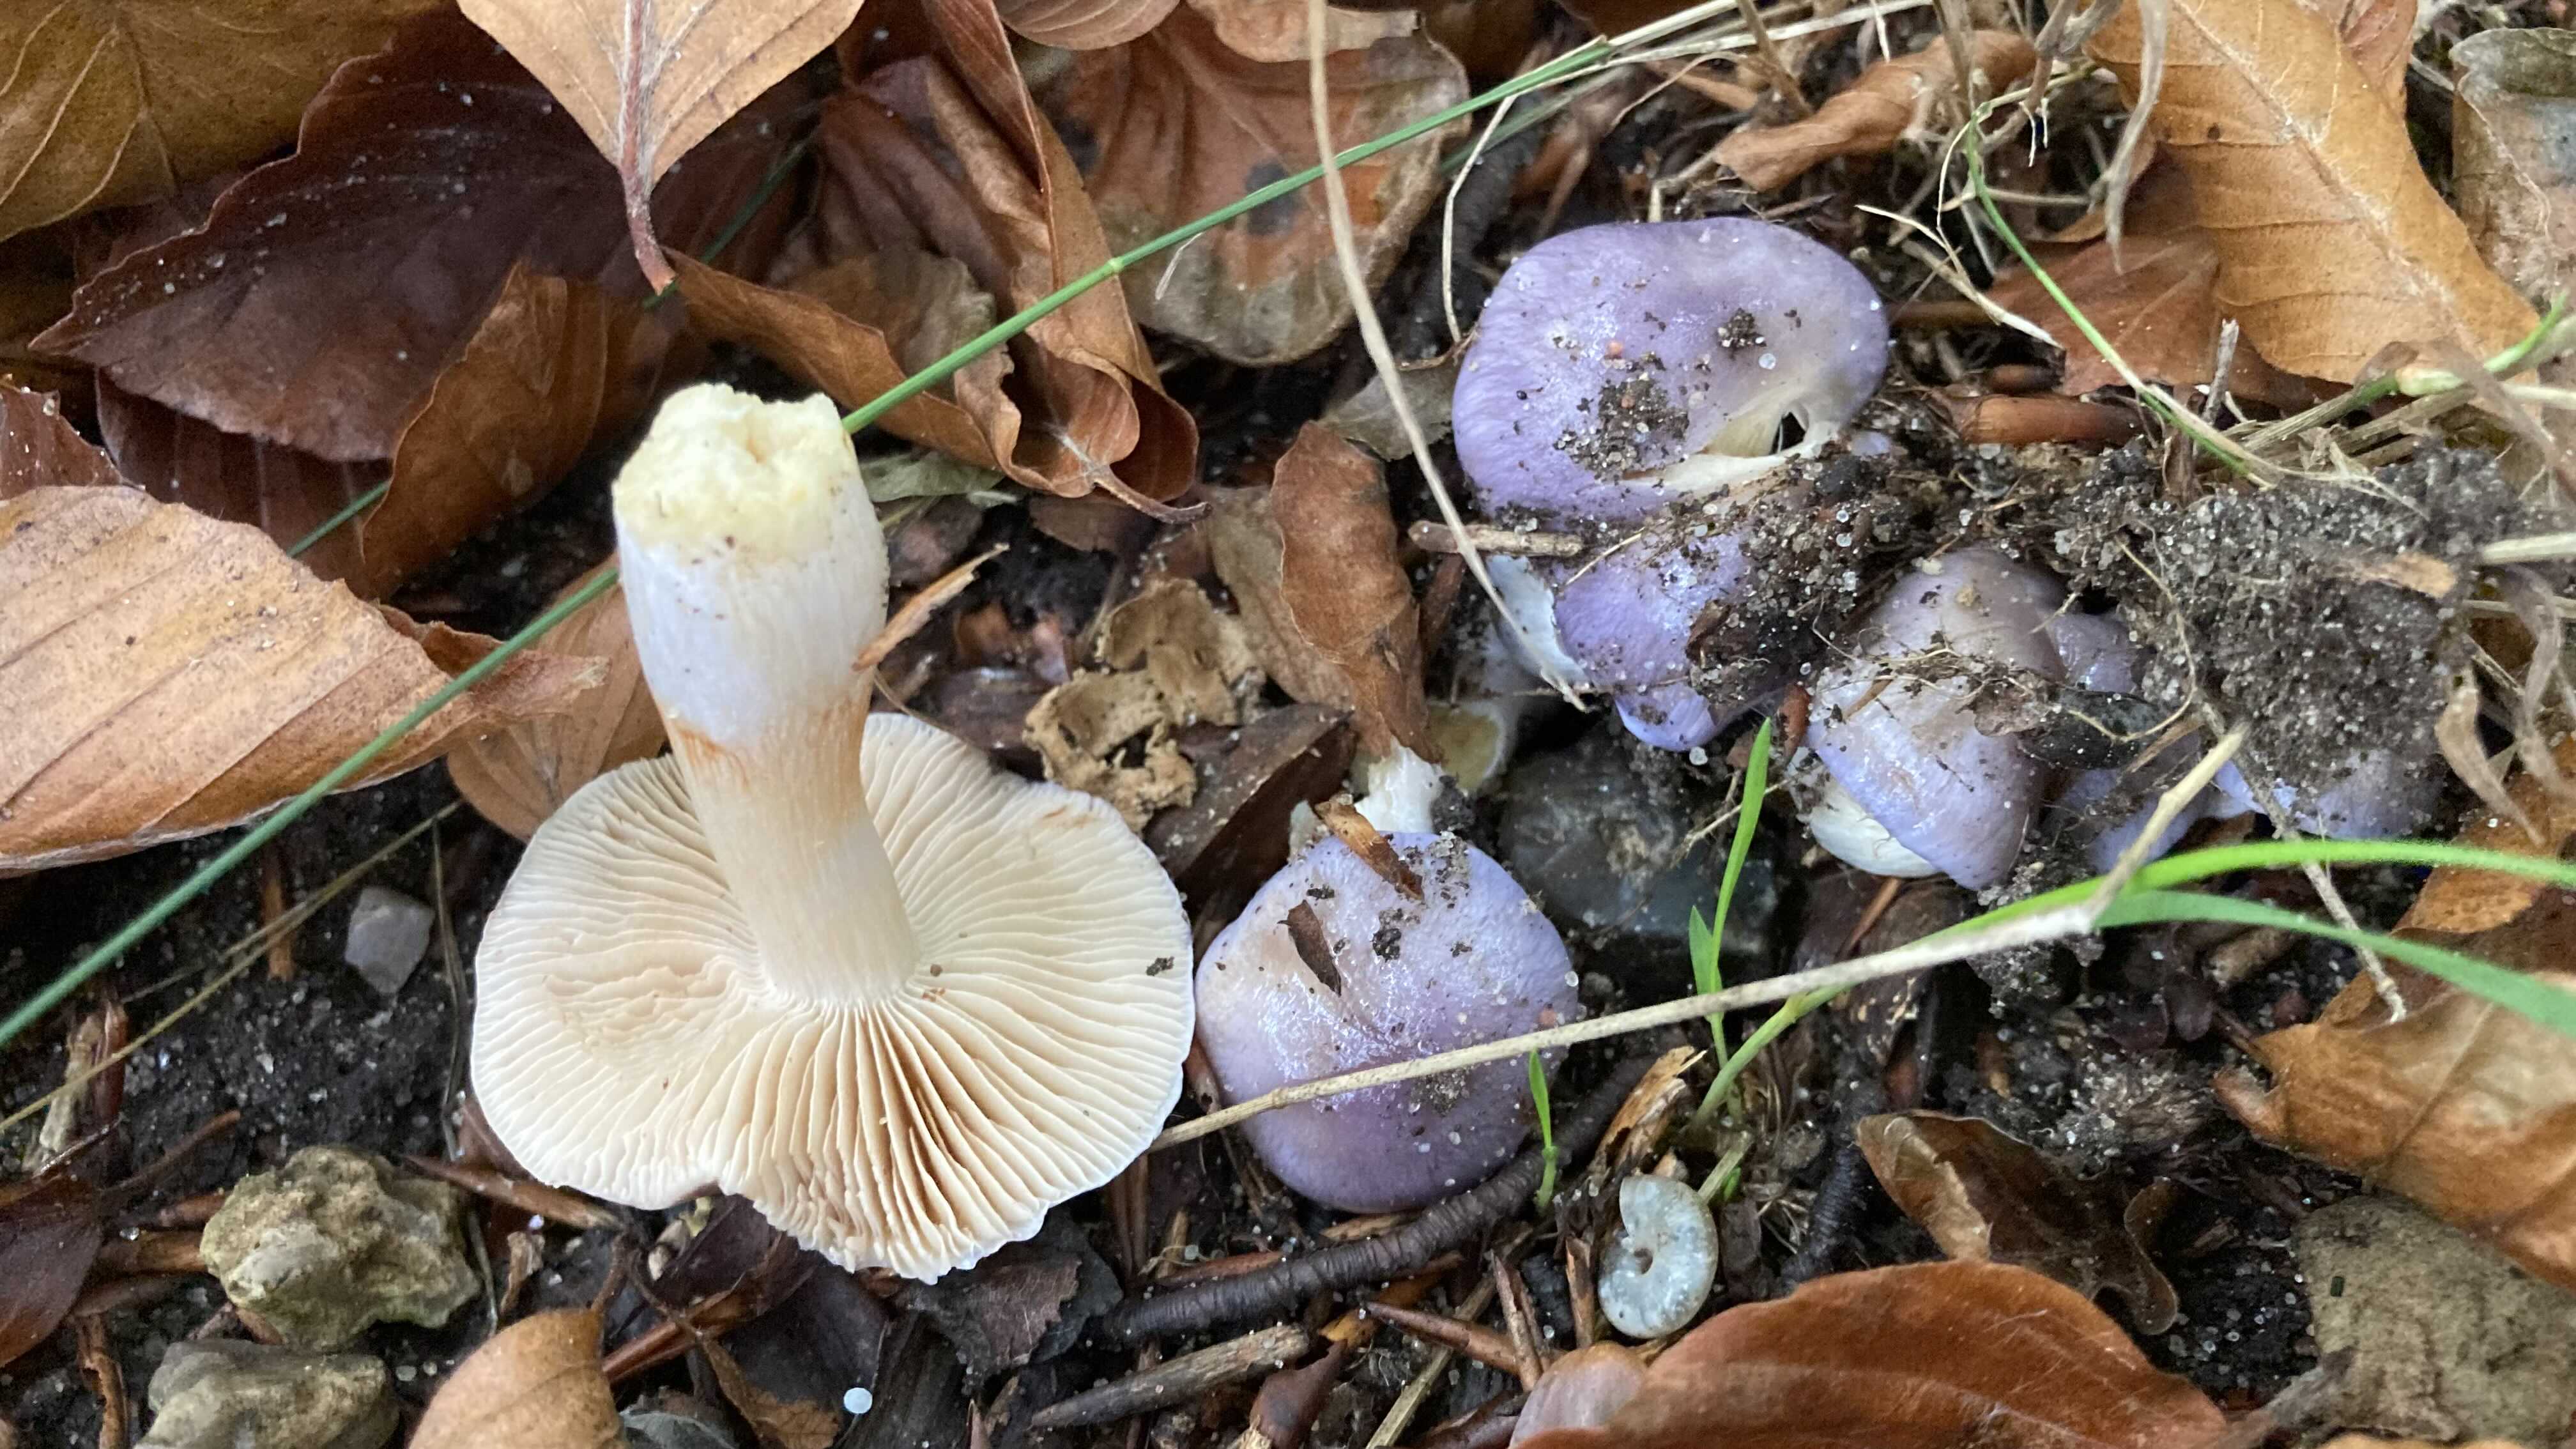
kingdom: Fungi
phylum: Basidiomycota
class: Agaricomycetes
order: Agaricales
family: Cortinariaceae
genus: Thaxterogaster
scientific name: Thaxterogaster croceocoeruleus
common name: blågullig slørhat
